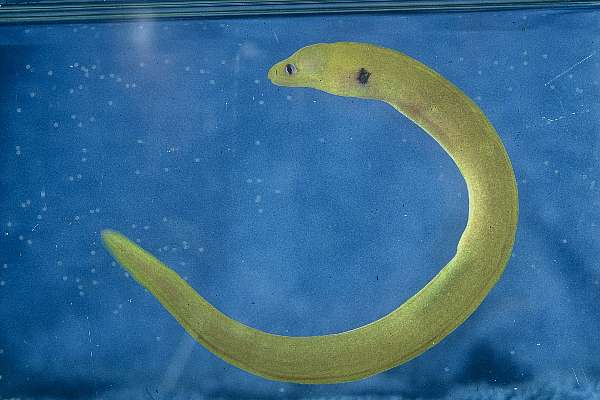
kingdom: Animalia
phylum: Chordata
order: Anguilliformes
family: Muraenidae
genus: Gymnothorax
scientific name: Gymnothorax melatremus
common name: Dwarf moray
